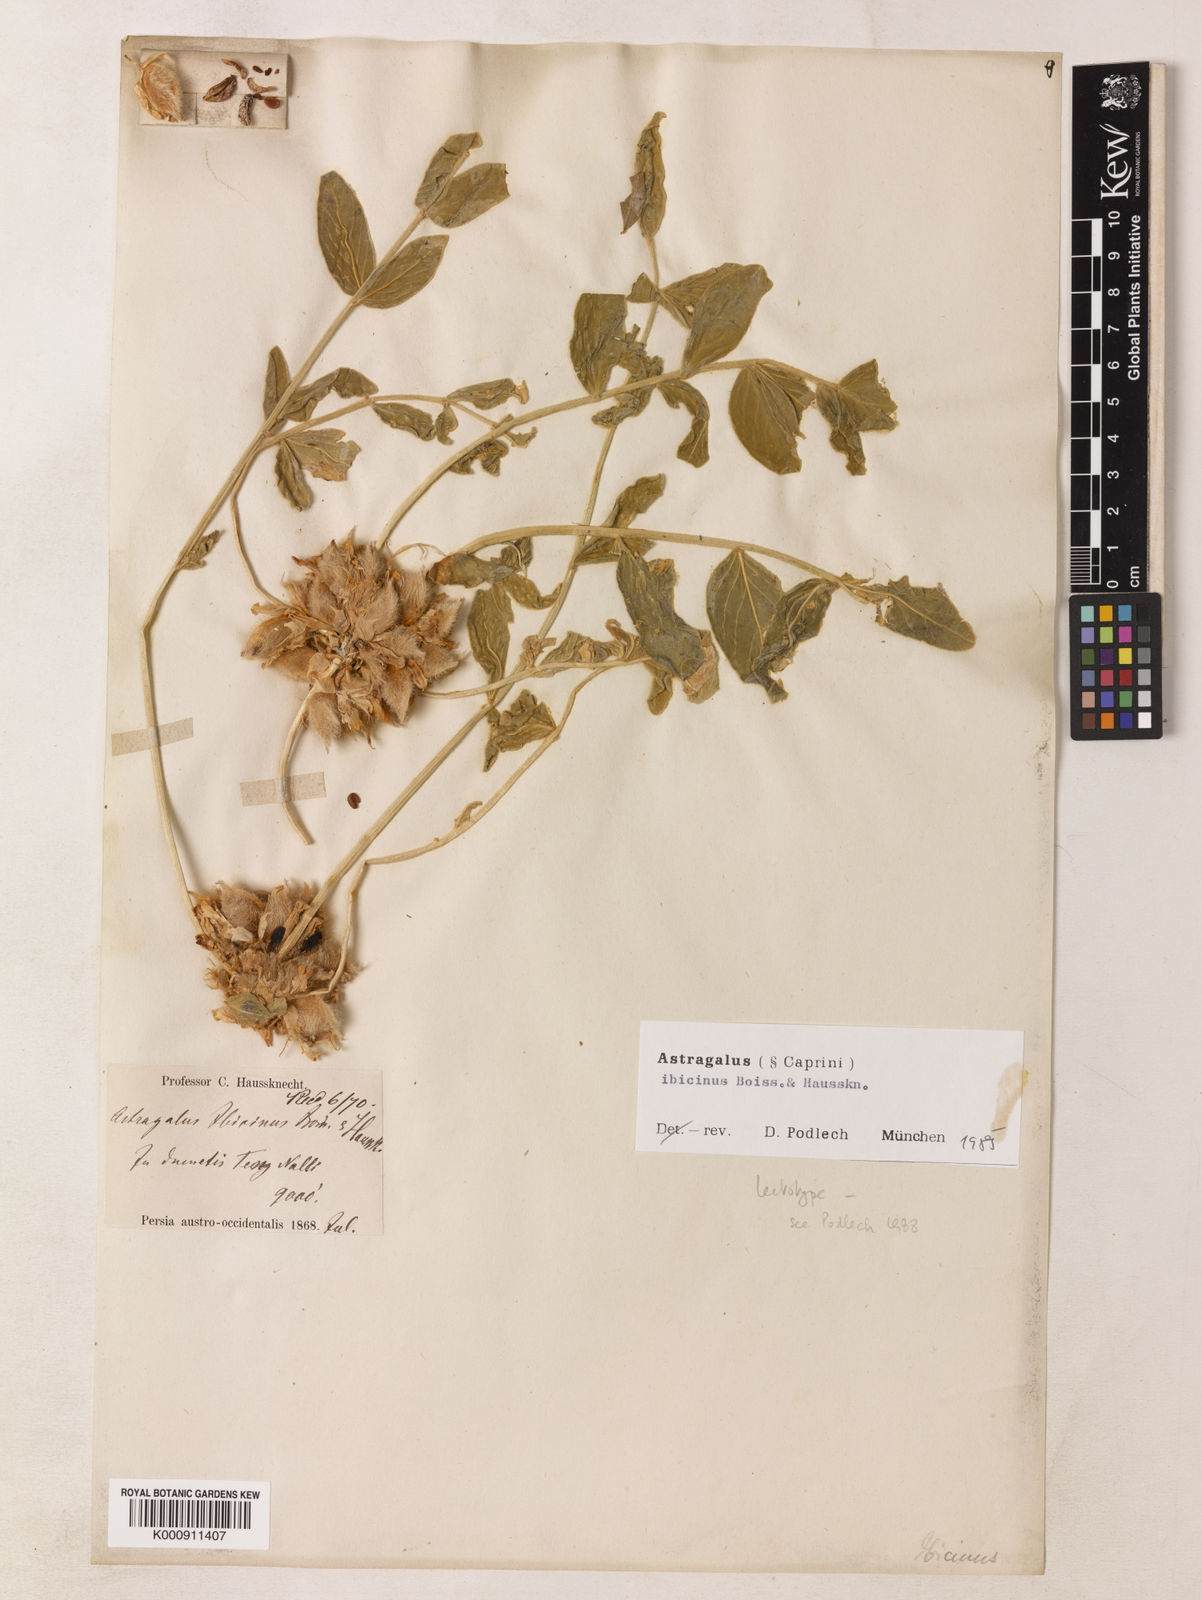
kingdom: Plantae
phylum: Tracheophyta
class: Magnoliopsida
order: Fabales
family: Fabaceae
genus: Astragalus
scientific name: Astragalus ibicinus
